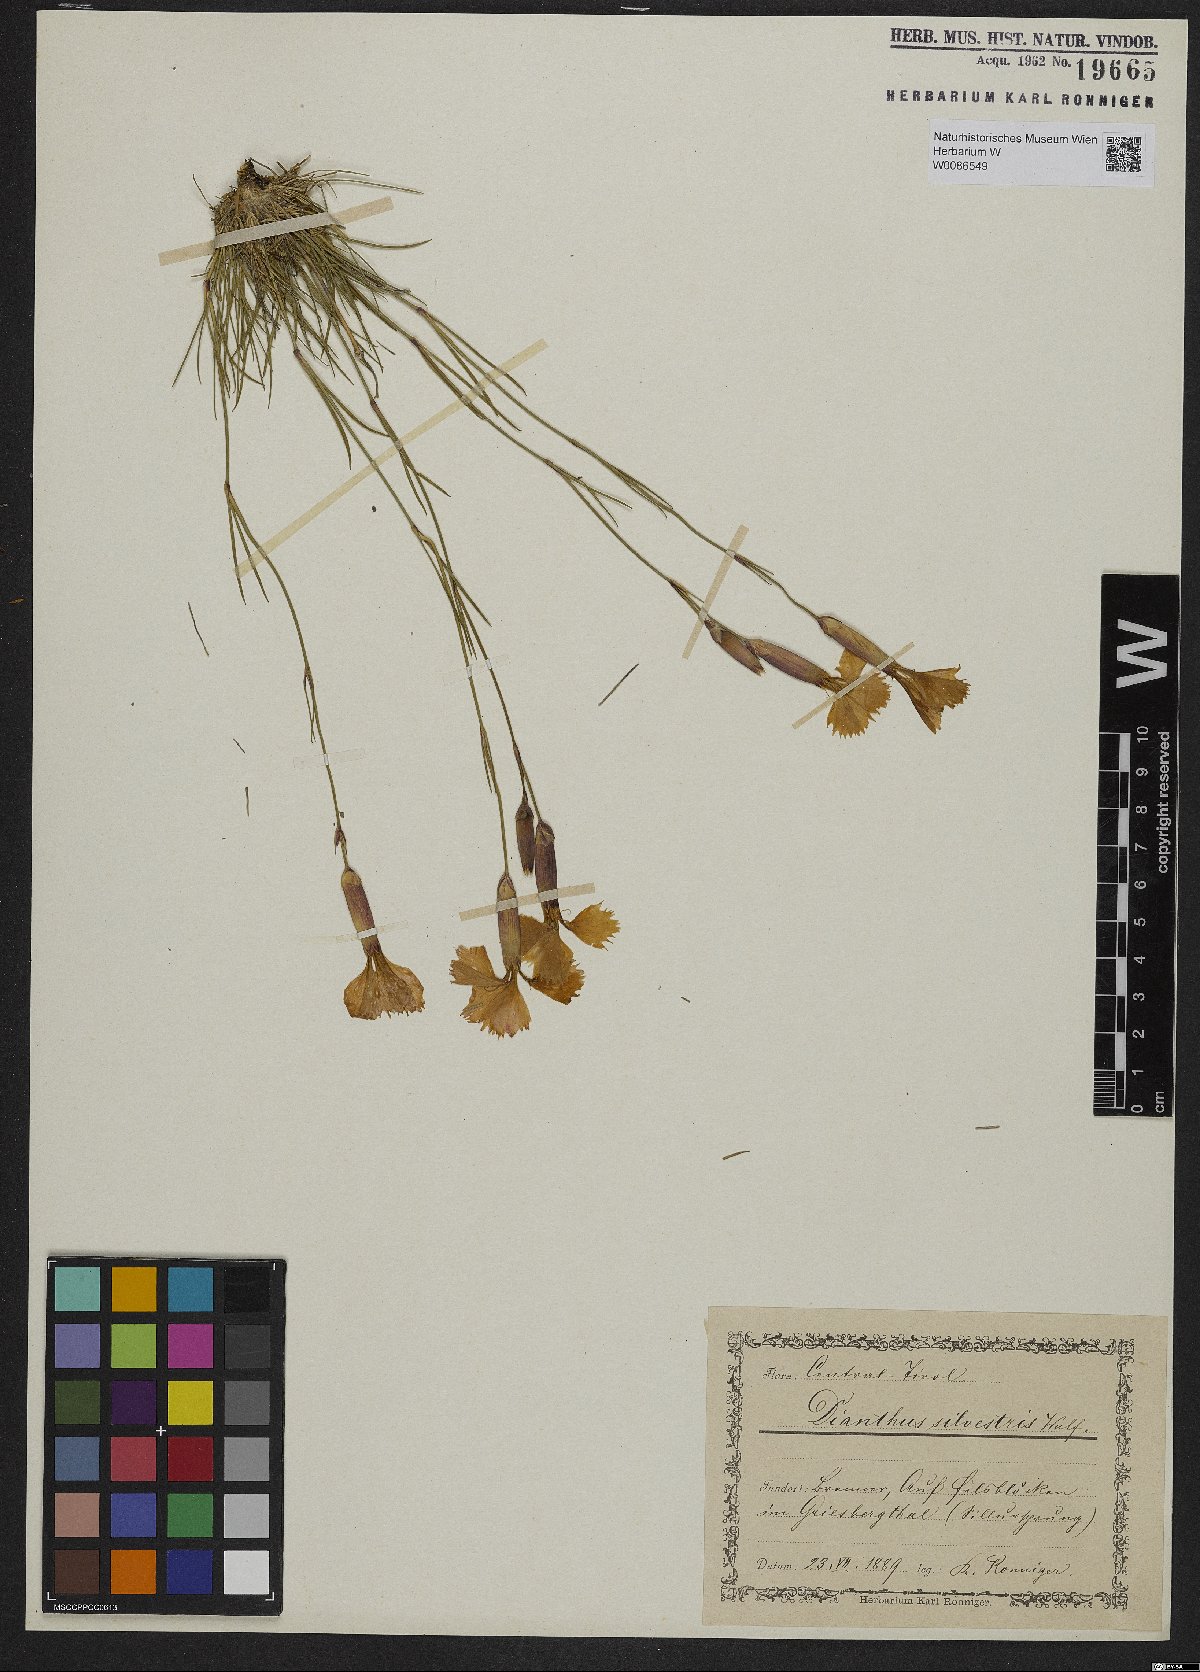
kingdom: Plantae
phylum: Tracheophyta
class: Magnoliopsida
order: Caryophyllales
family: Caryophyllaceae
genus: Dianthus
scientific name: Dianthus sylvestris
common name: Wood pink
